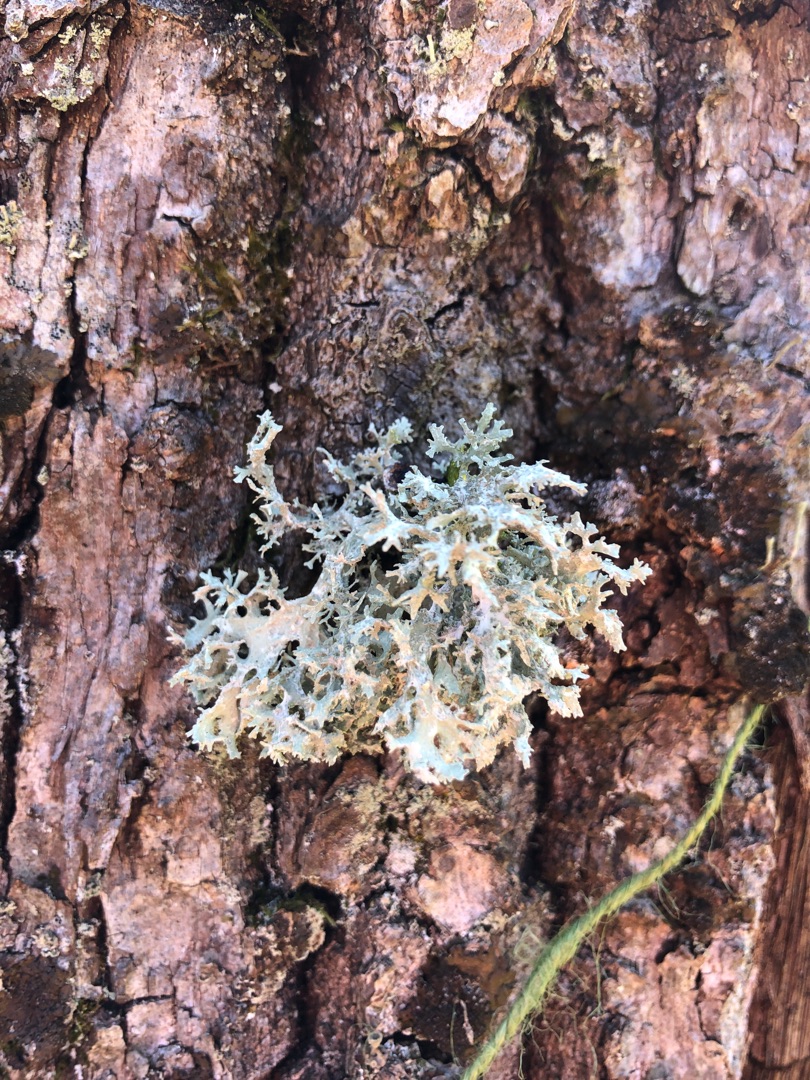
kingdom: Fungi
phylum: Ascomycota
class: Lecanoromycetes
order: Lecanorales
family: Parmeliaceae
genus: Evernia
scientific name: Evernia prunastri
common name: Almindelig slåenlav
